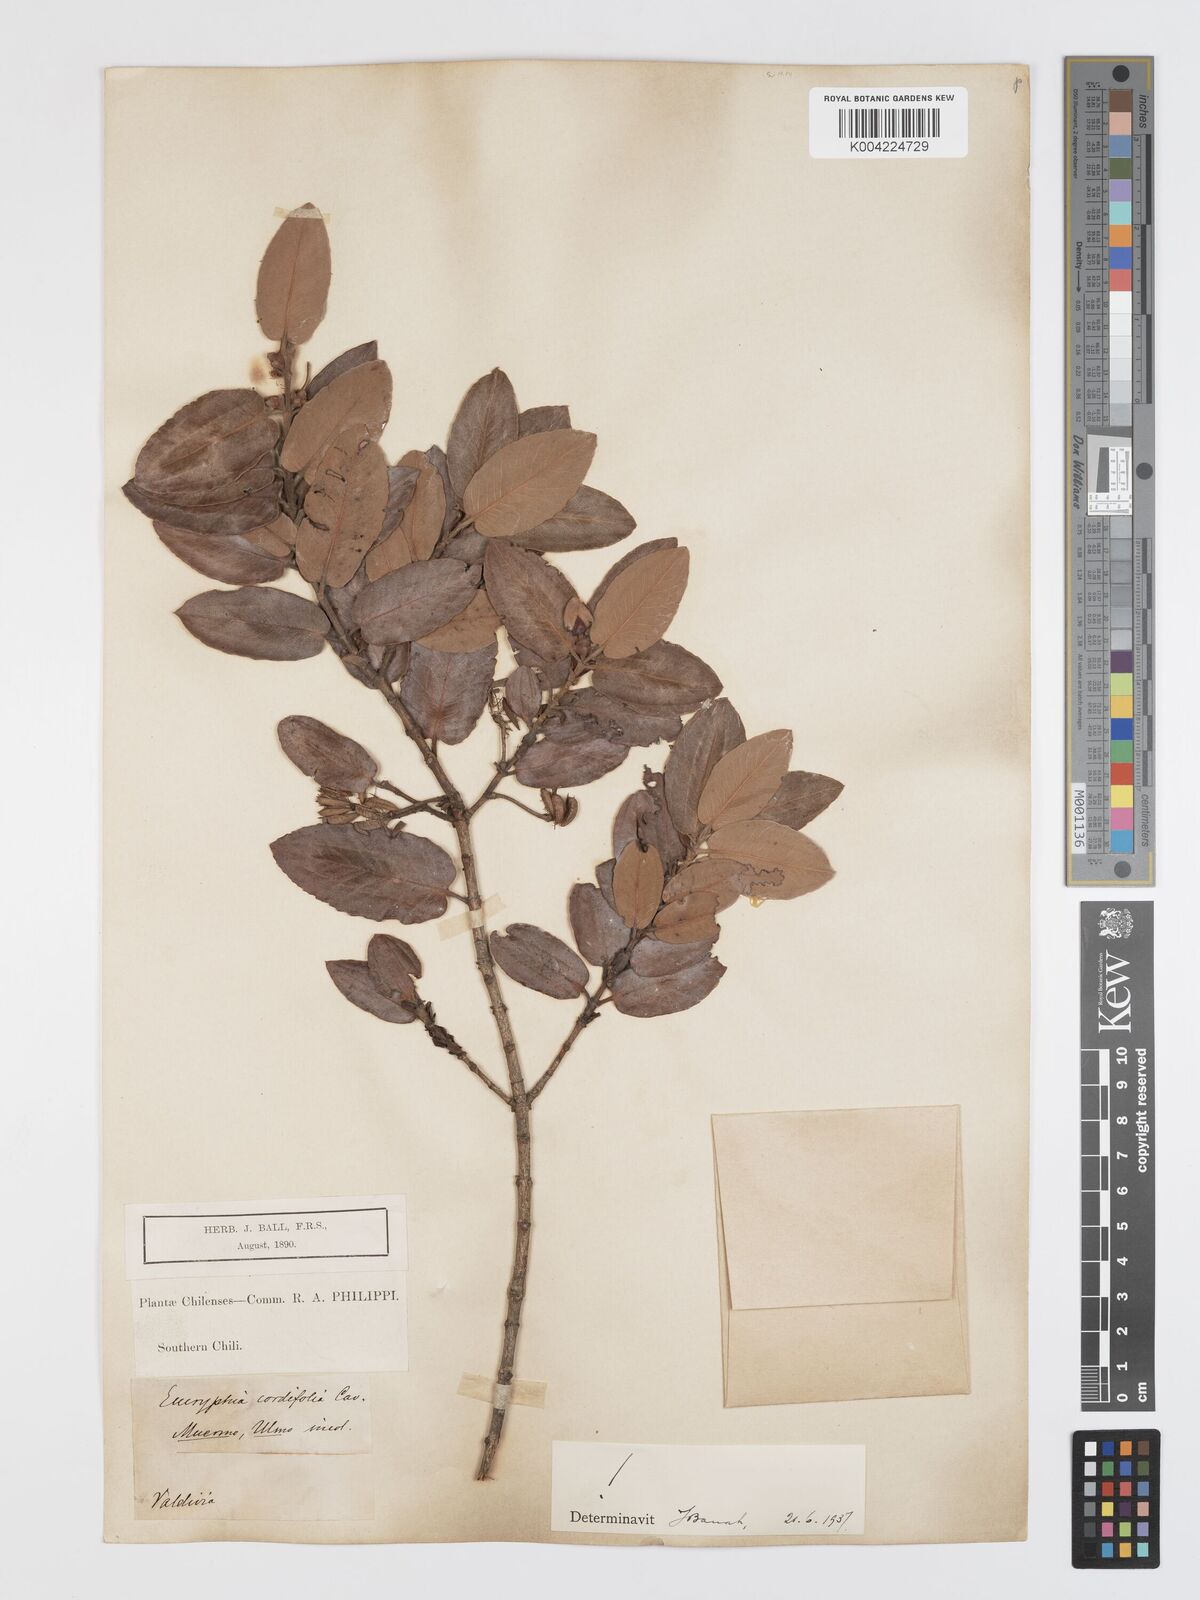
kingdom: Plantae
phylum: Tracheophyta
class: Magnoliopsida
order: Oxalidales
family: Cunoniaceae
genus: Eucryphia
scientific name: Eucryphia cordifolia
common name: Ulmo
